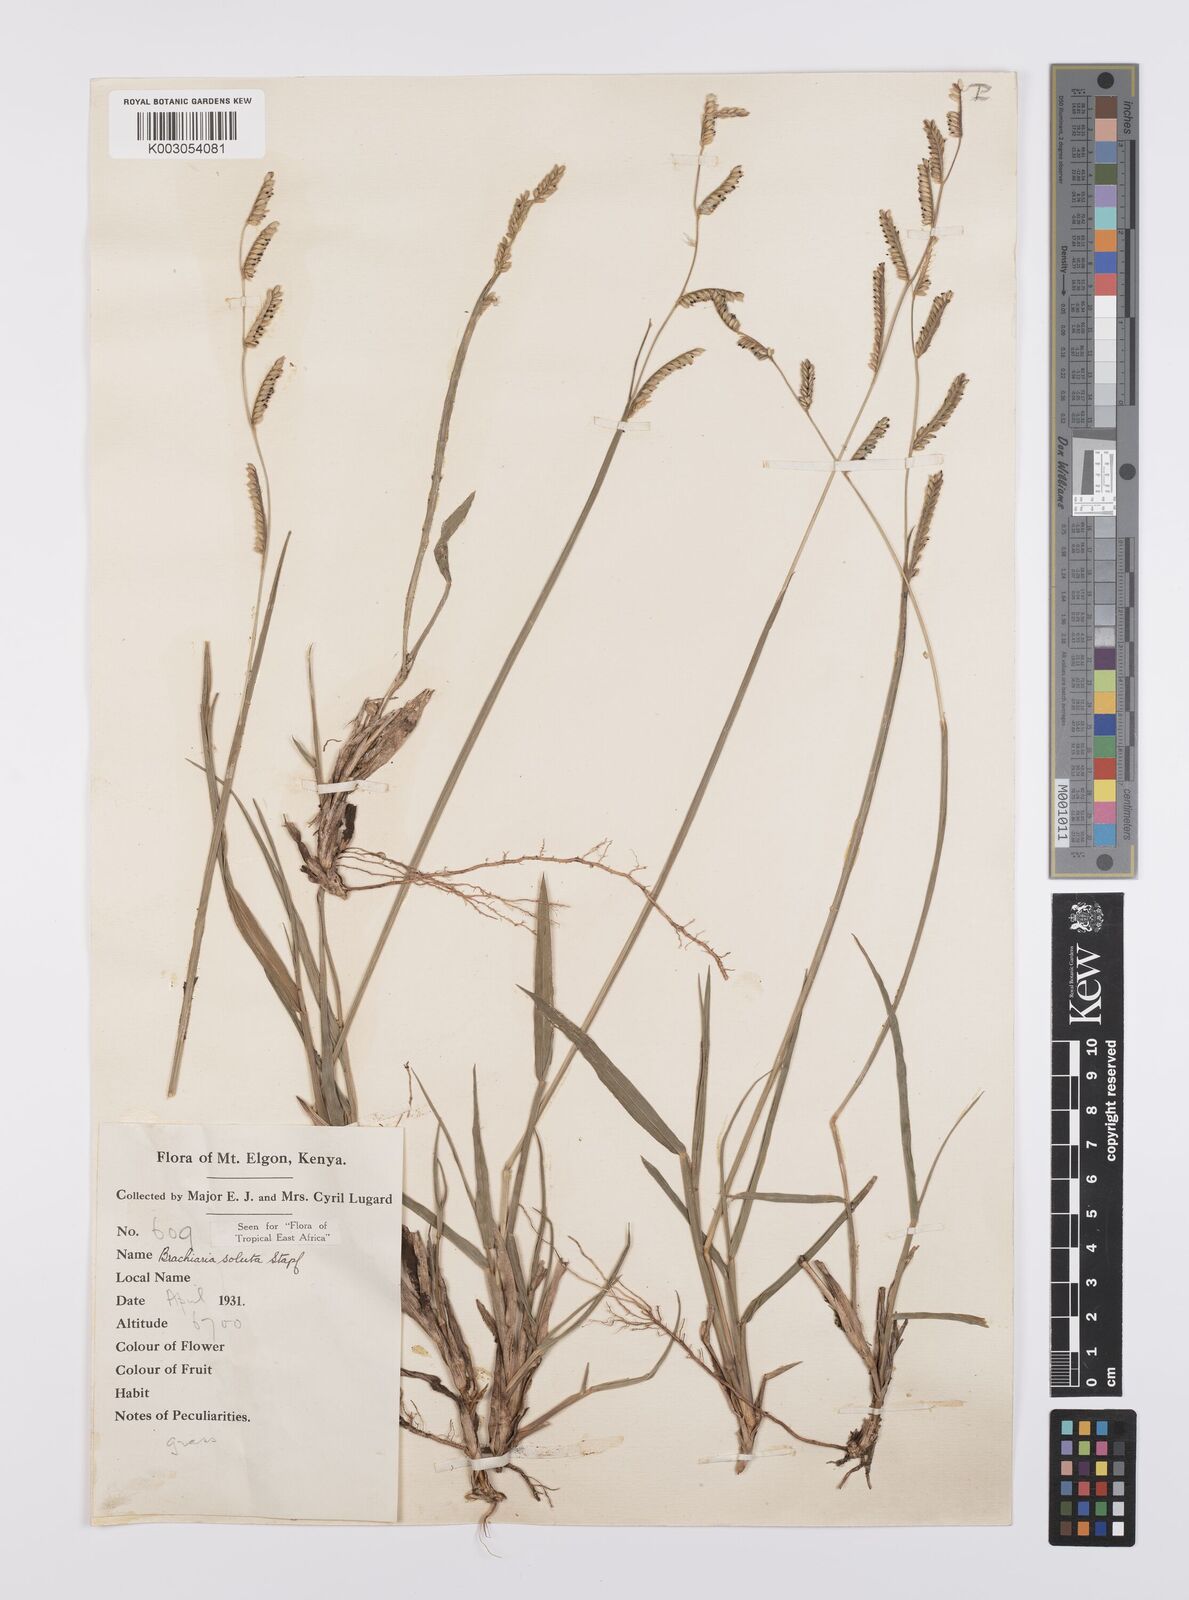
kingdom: Plantae
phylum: Tracheophyta
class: Liliopsida
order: Poales
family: Poaceae
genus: Urochloa
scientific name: Urochloa jubata
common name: Buffalograss
